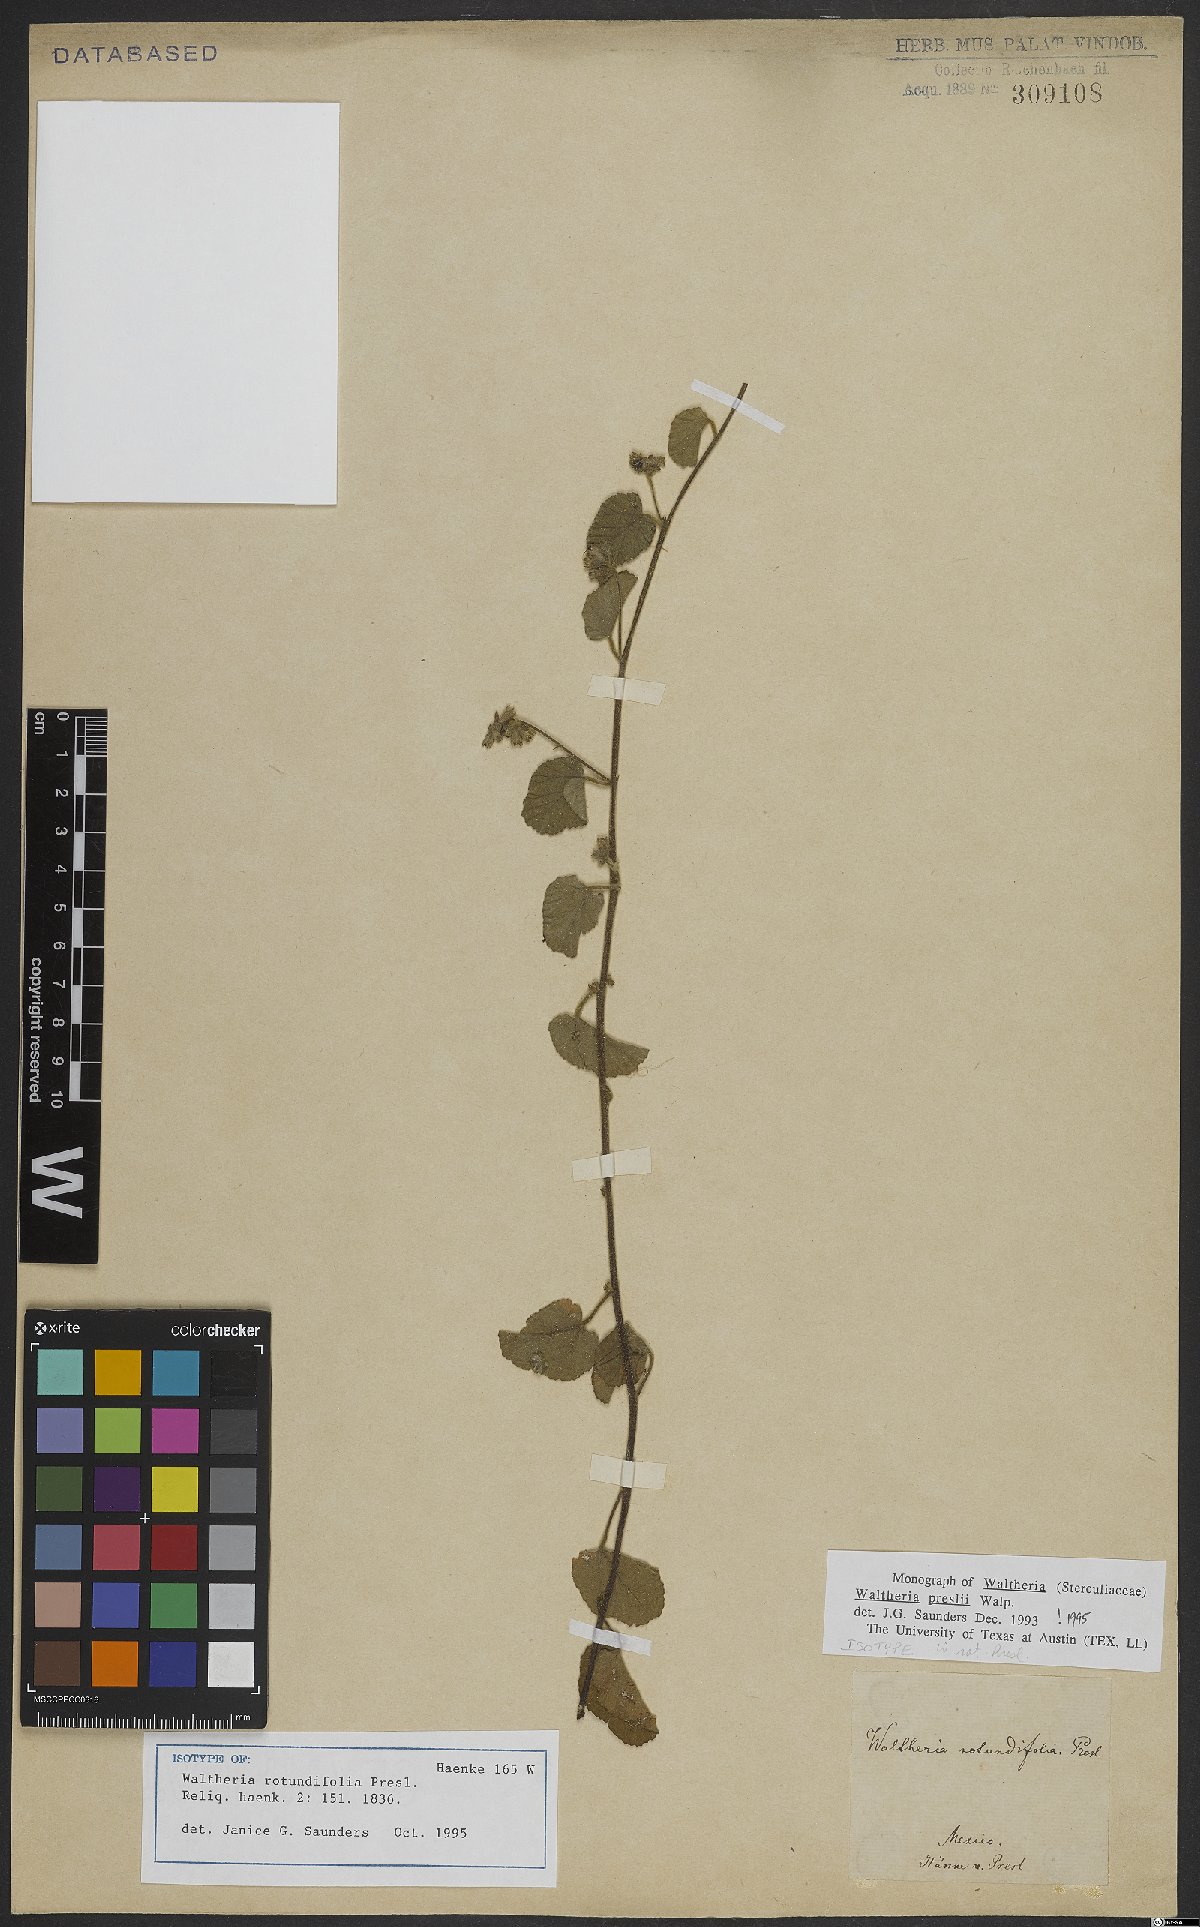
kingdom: Plantae
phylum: Tracheophyta
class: Magnoliopsida
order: Malvales
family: Malvaceae
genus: Waltheria
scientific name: Waltheria preslii
